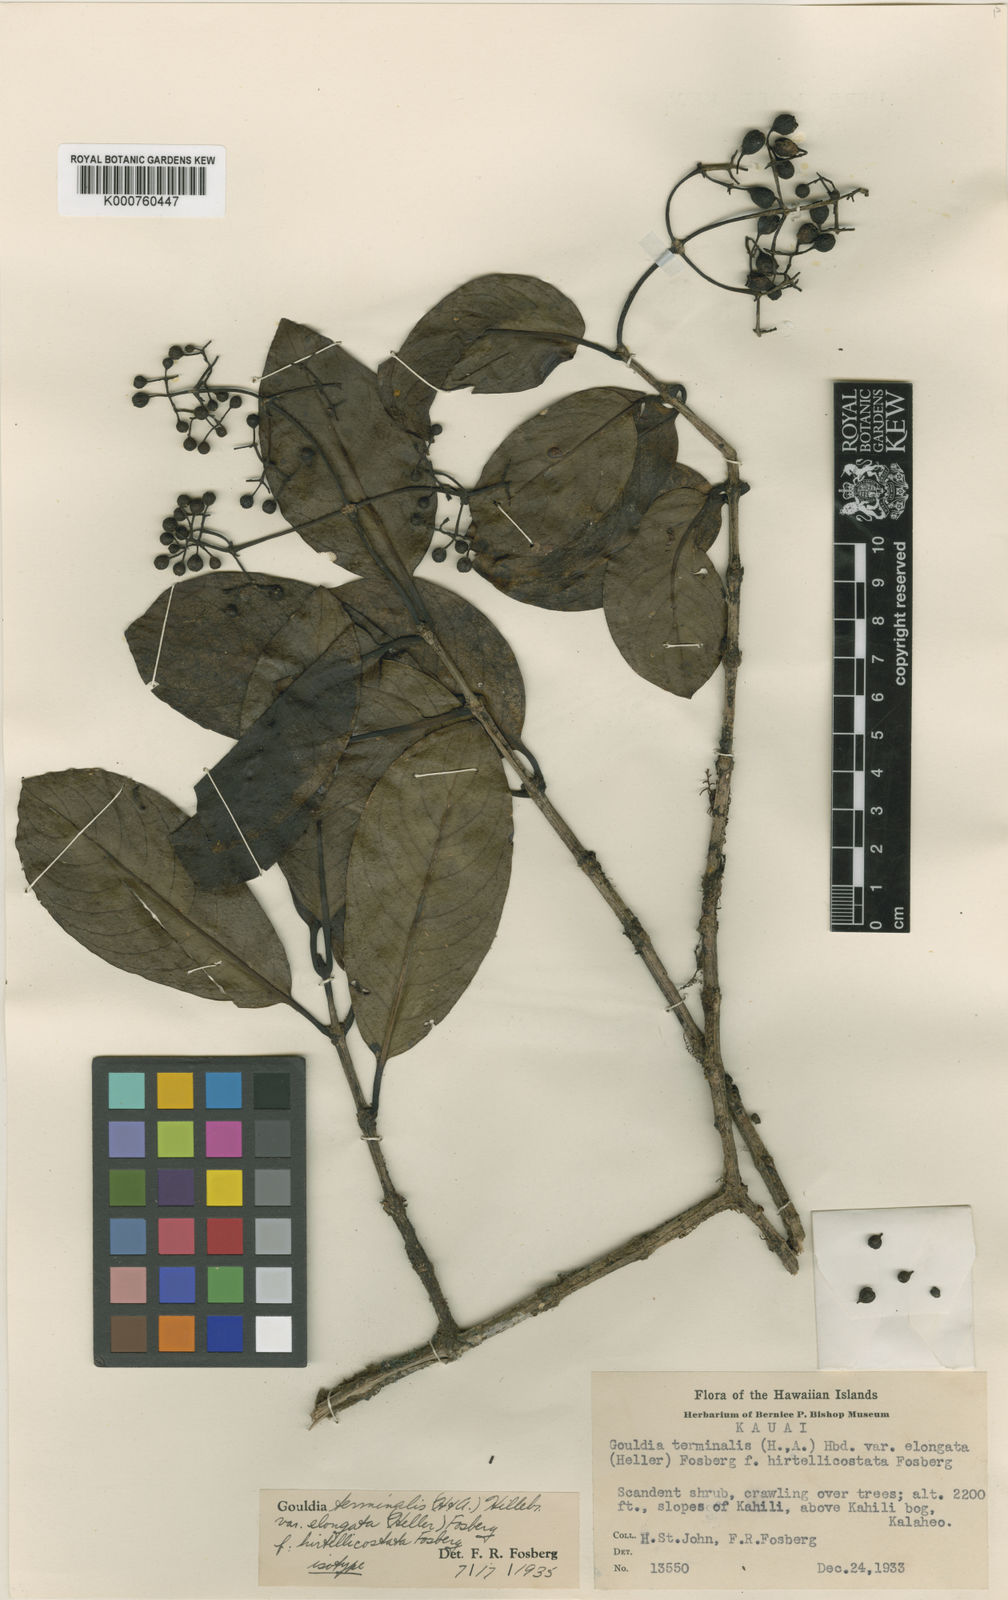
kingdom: Plantae
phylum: Tracheophyta
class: Magnoliopsida
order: Gentianales
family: Rubiaceae
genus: Kadua
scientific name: Kadua affinis
